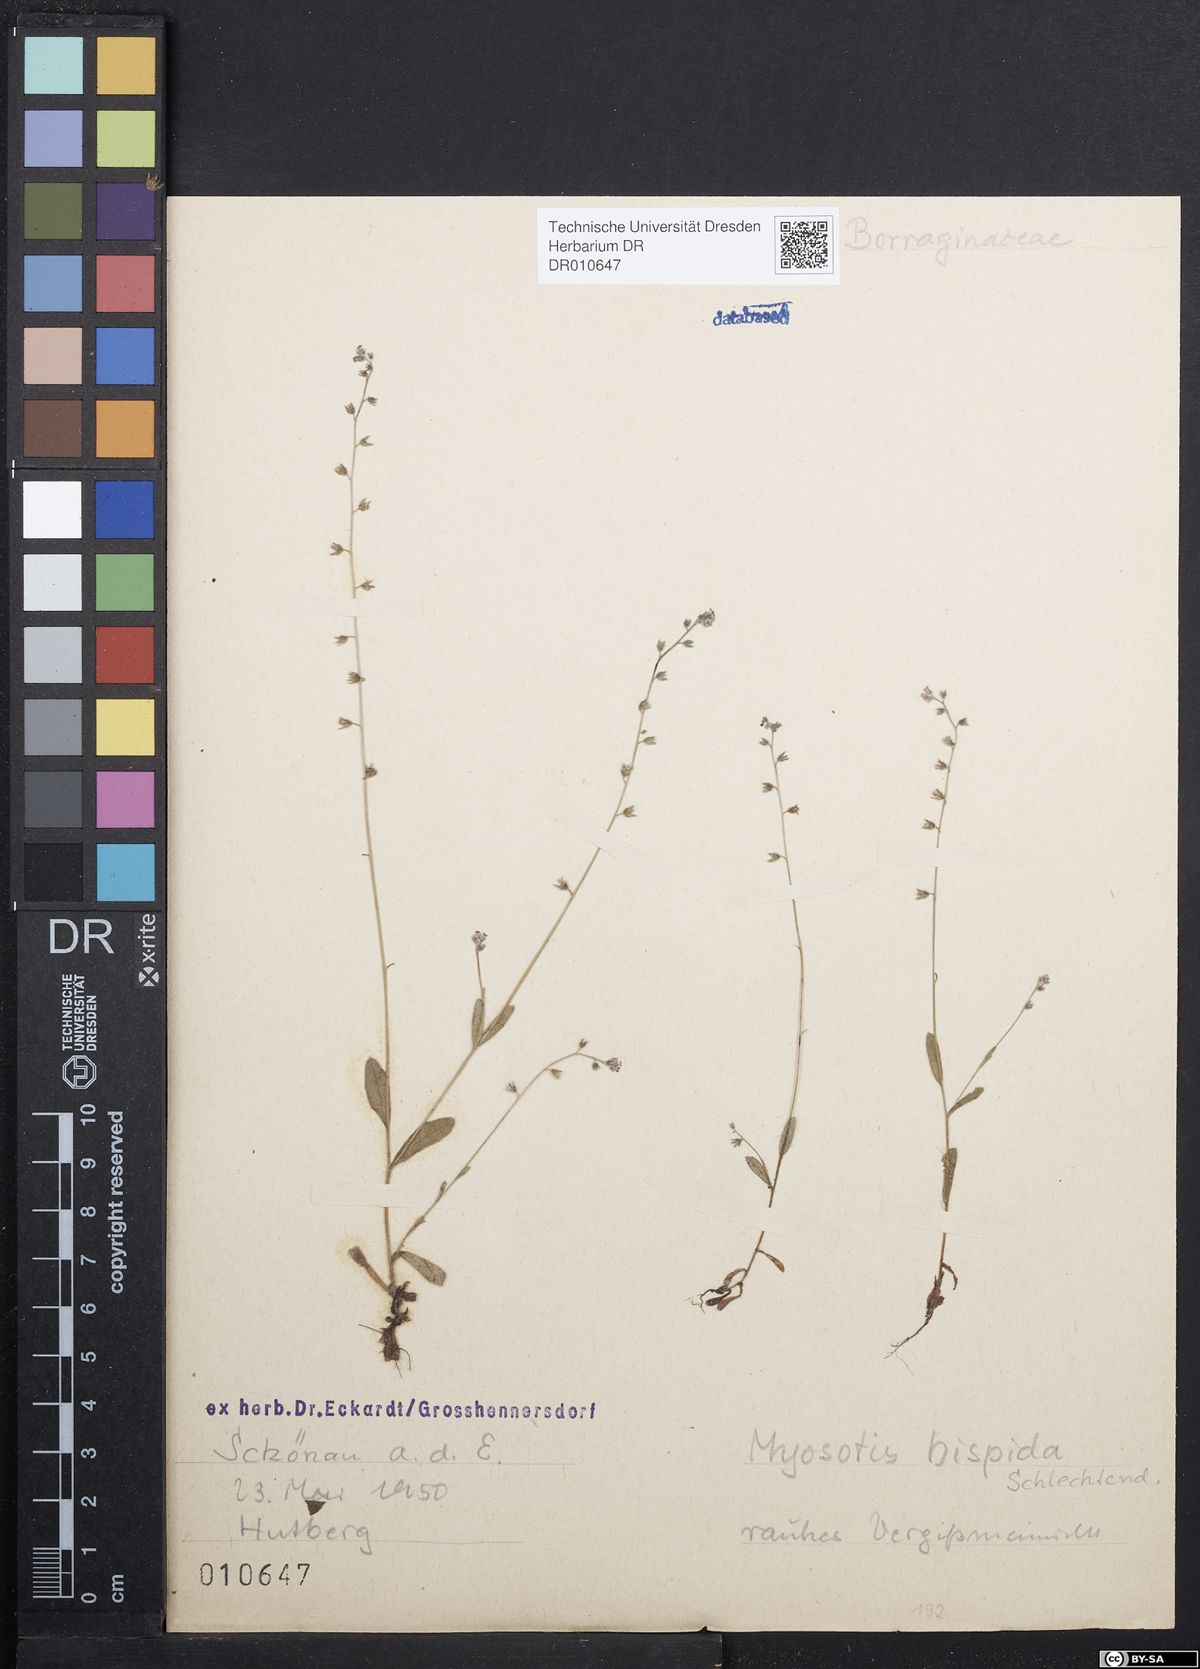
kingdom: Plantae
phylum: Tracheophyta
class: Magnoliopsida
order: Boraginales
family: Boraginaceae
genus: Myosotis
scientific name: Myosotis ramosissima
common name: Early forget-me-not
